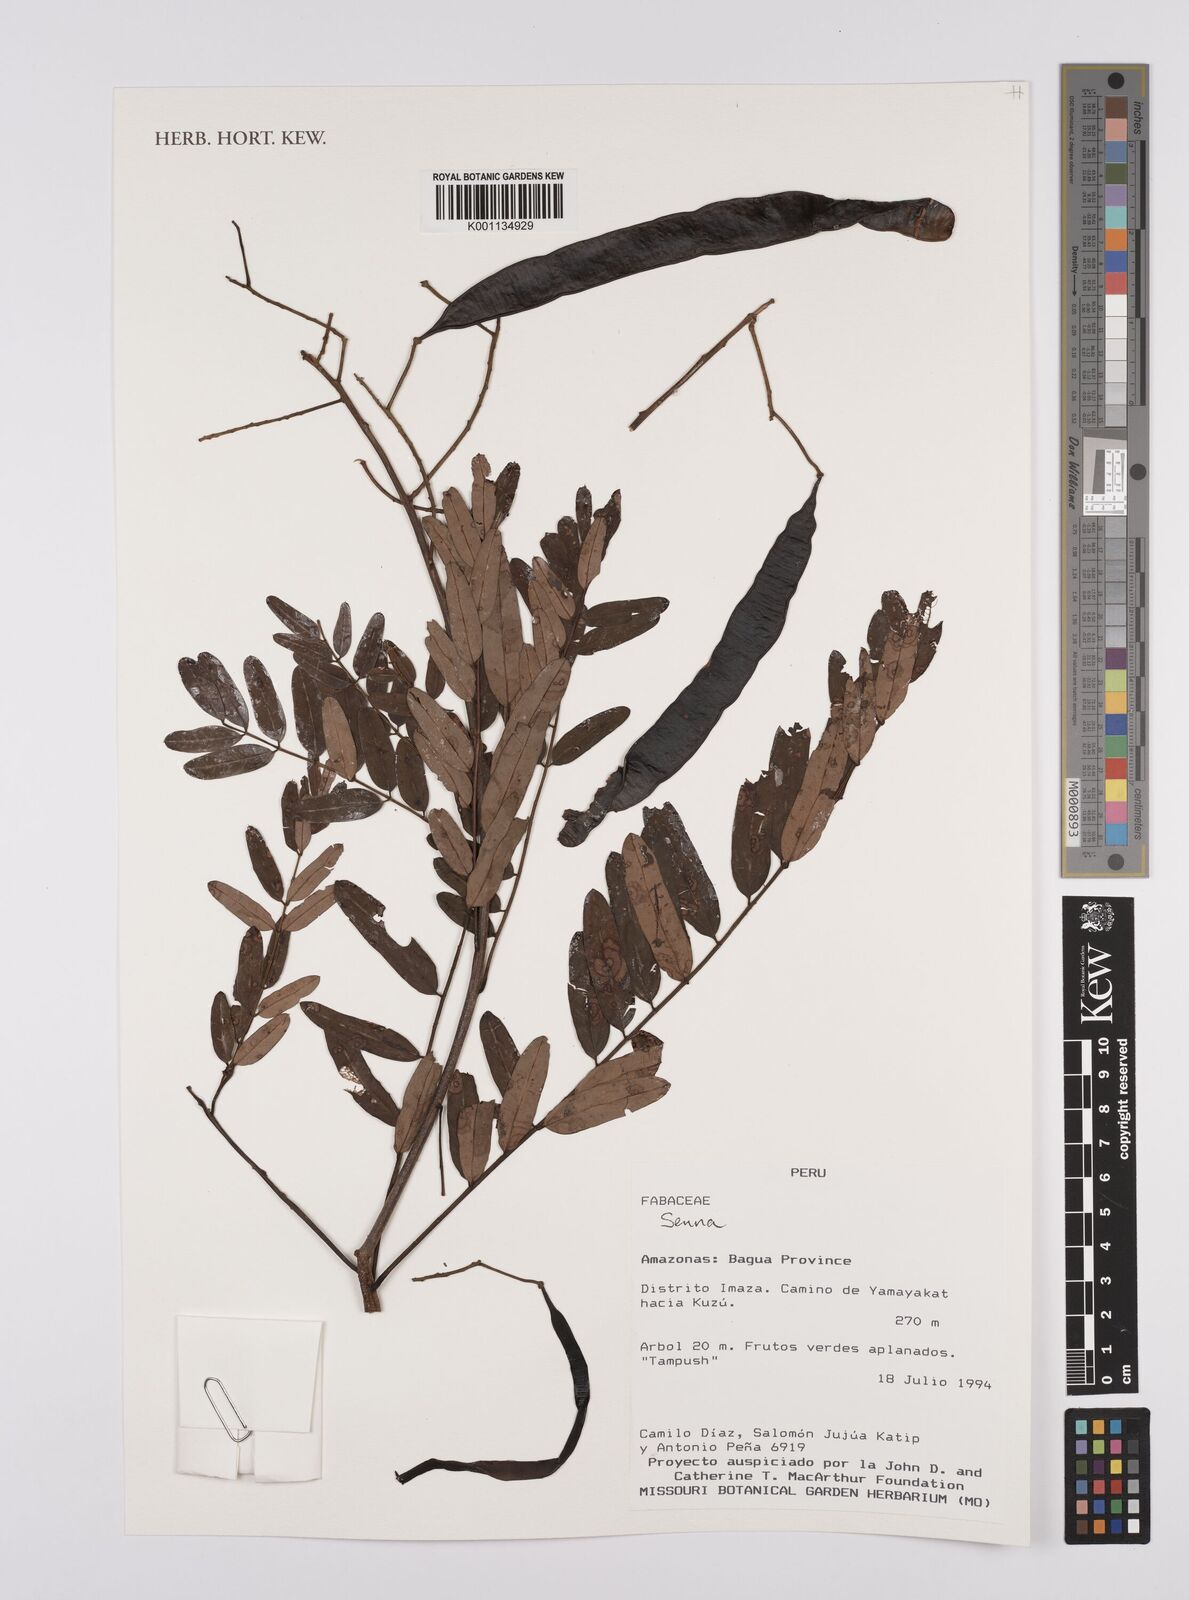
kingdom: Plantae
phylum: Tracheophyta
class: Magnoliopsida
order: Fabales
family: Fabaceae
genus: Senna
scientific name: Senna
